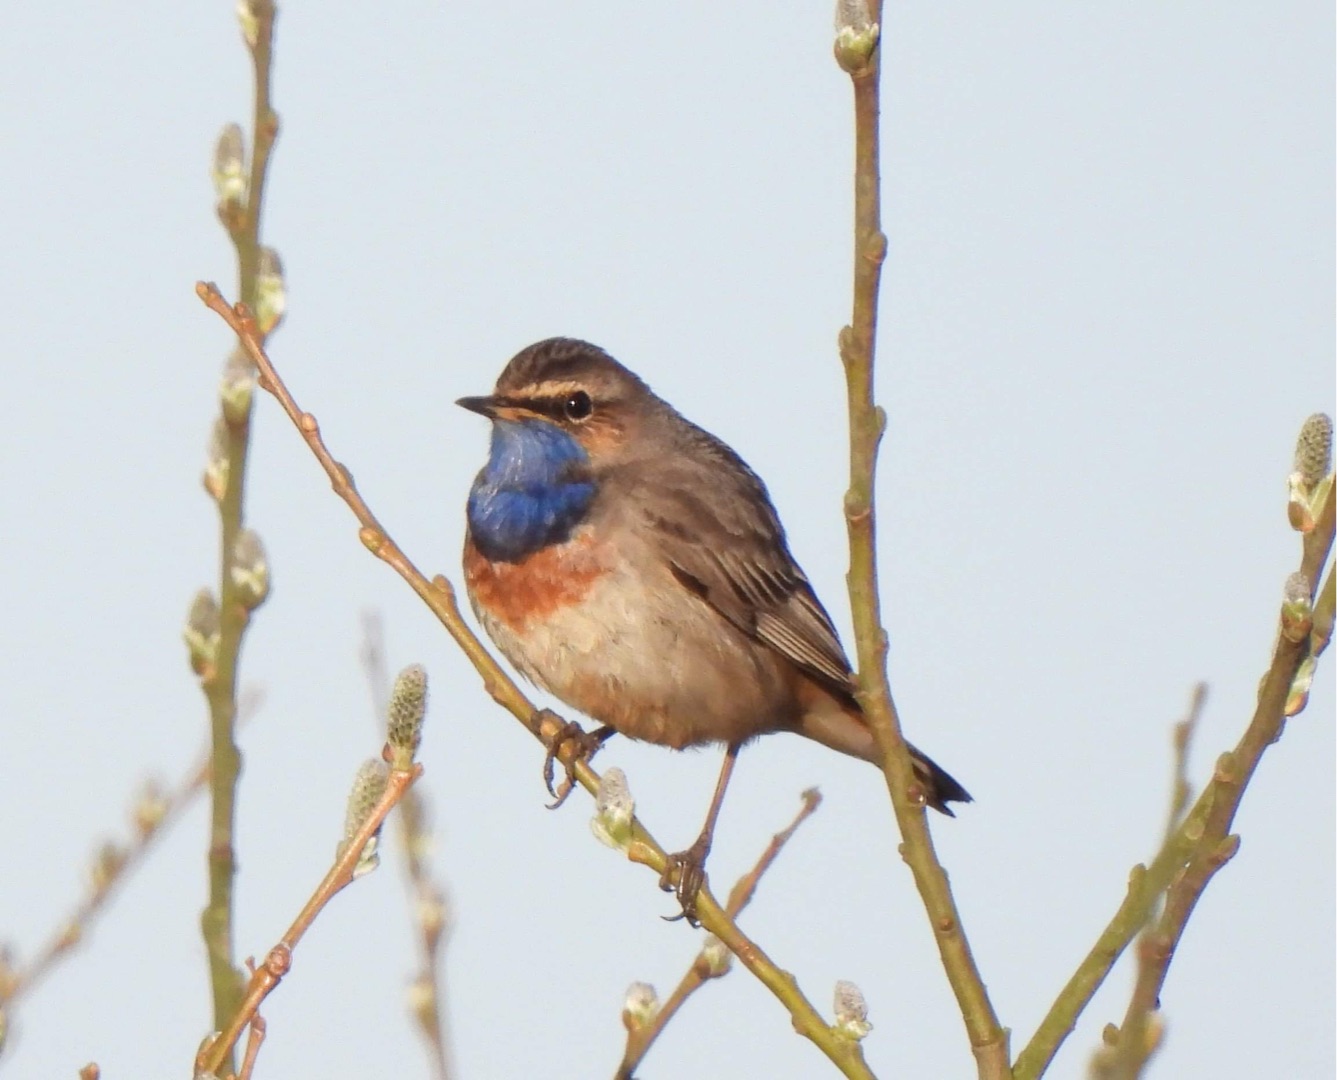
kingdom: Animalia
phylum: Chordata
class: Aves
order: Passeriformes
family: Muscicapidae
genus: Luscinia
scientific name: Luscinia svecica
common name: Blåhals
